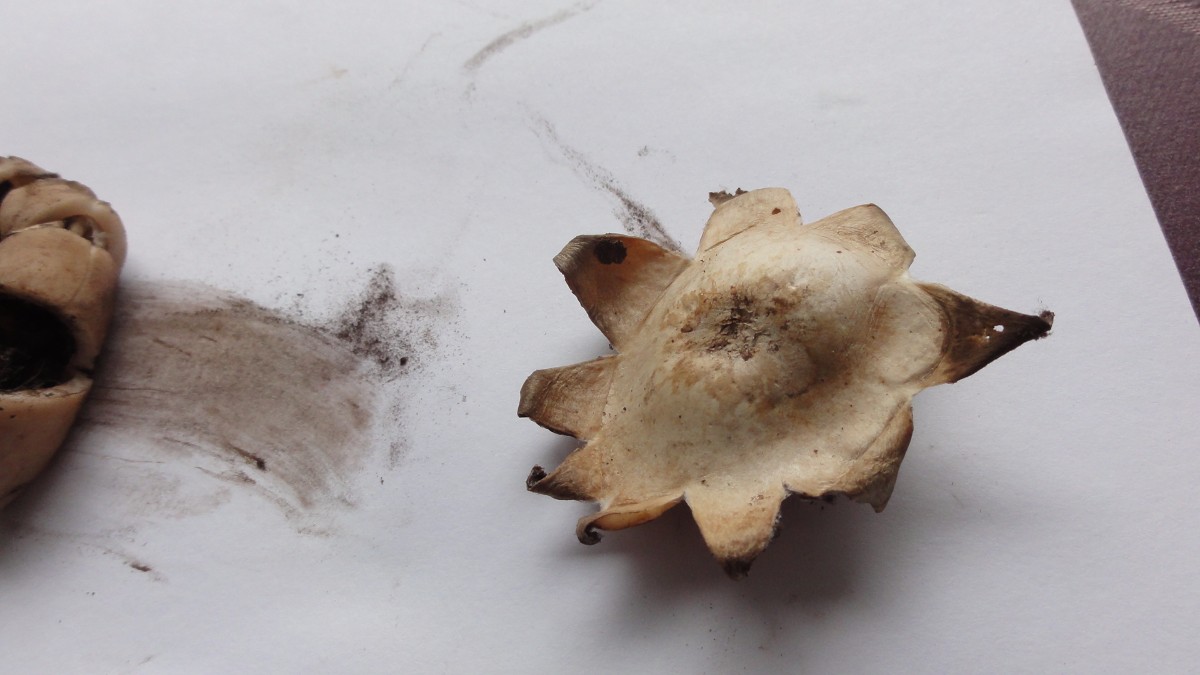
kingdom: Fungi
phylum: Basidiomycota
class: Agaricomycetes
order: Geastrales
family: Geastraceae
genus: Geastrum
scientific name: Geastrum fimbriatum
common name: frynset stjernebold
